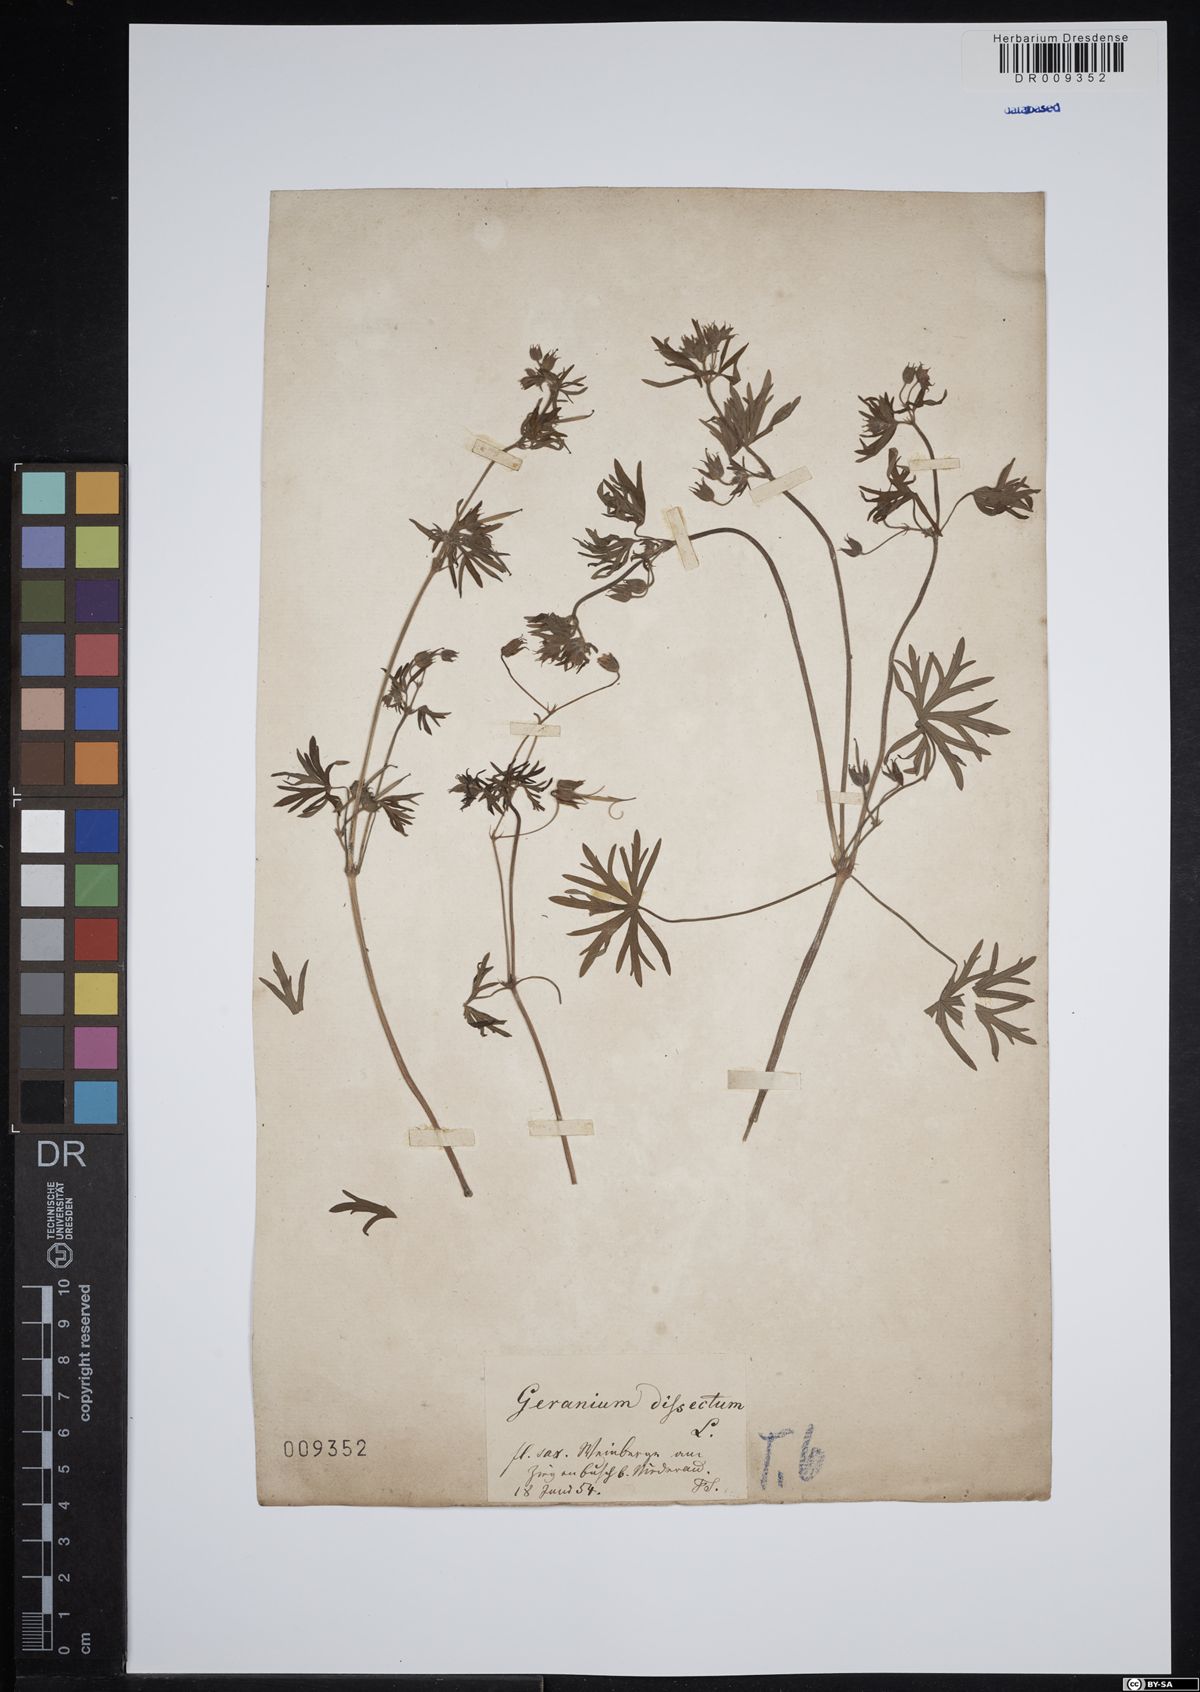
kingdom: Plantae
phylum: Tracheophyta
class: Magnoliopsida
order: Geraniales
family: Geraniaceae
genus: Geranium
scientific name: Geranium dissectum
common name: Cut-leaved crane's-bill
